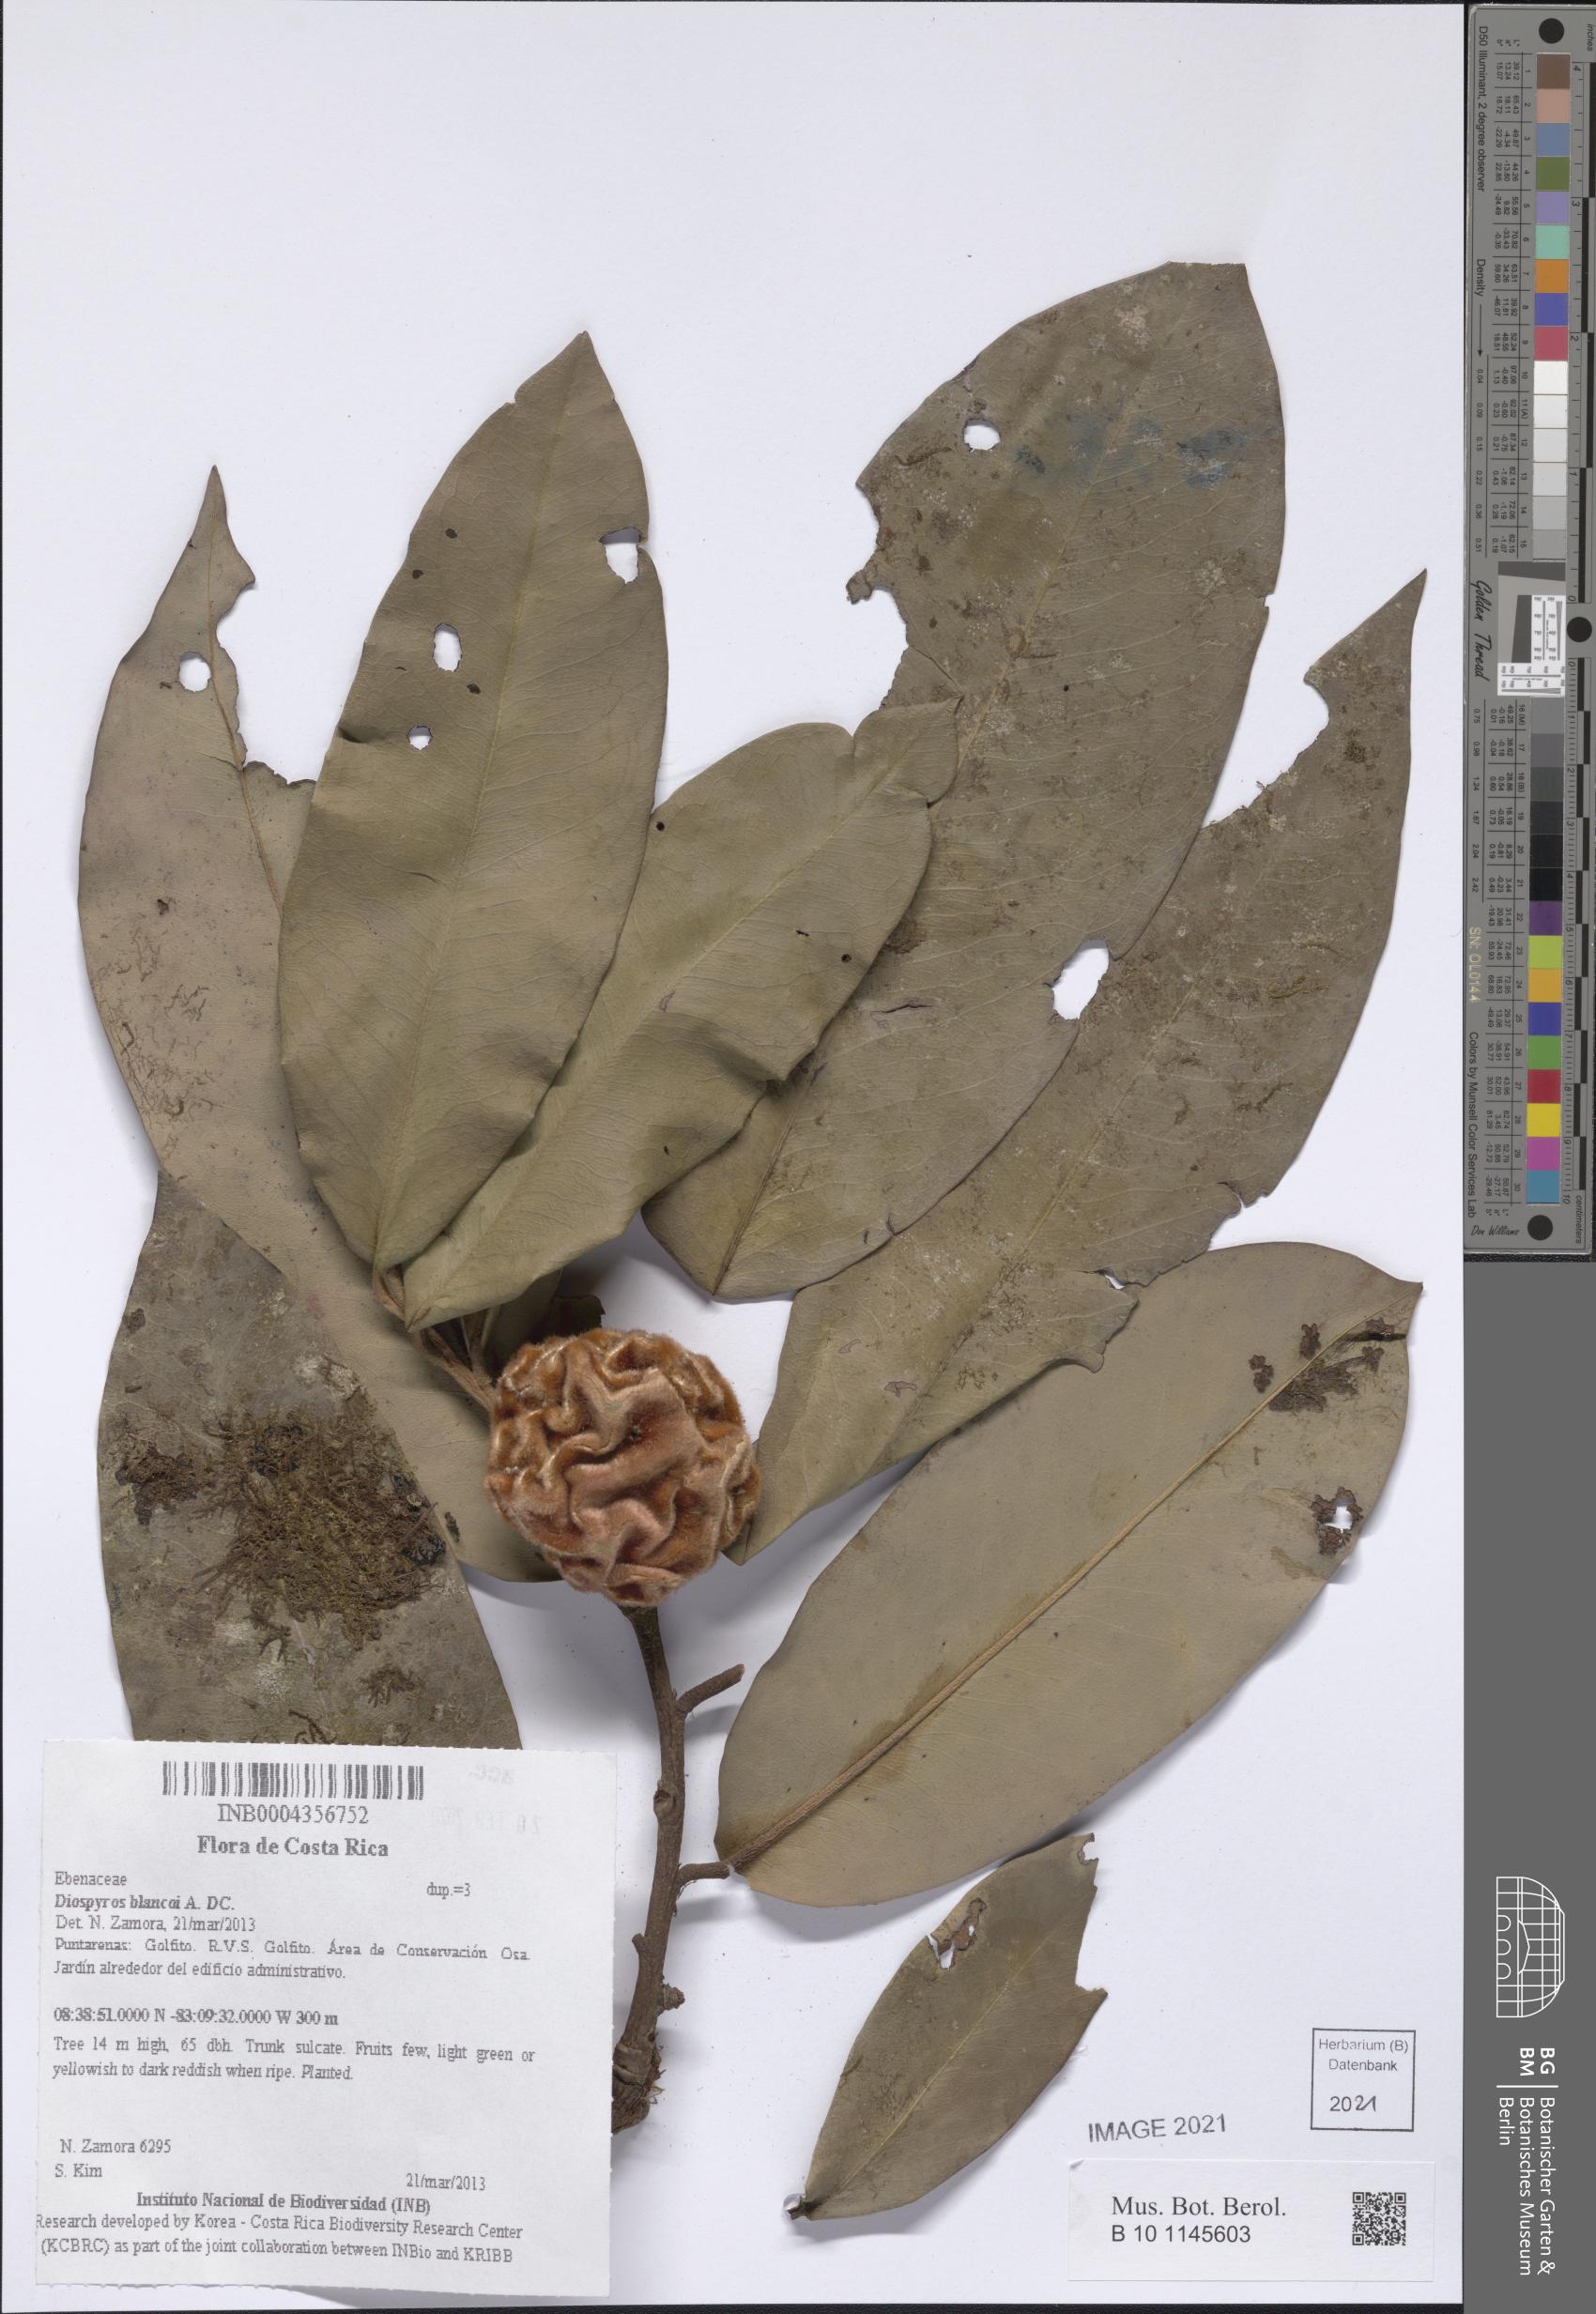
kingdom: Plantae
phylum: Tracheophyta
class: Magnoliopsida
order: Ericales
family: Ebenaceae
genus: Diospyros
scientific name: Diospyros blancoi
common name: Mabola-tree
